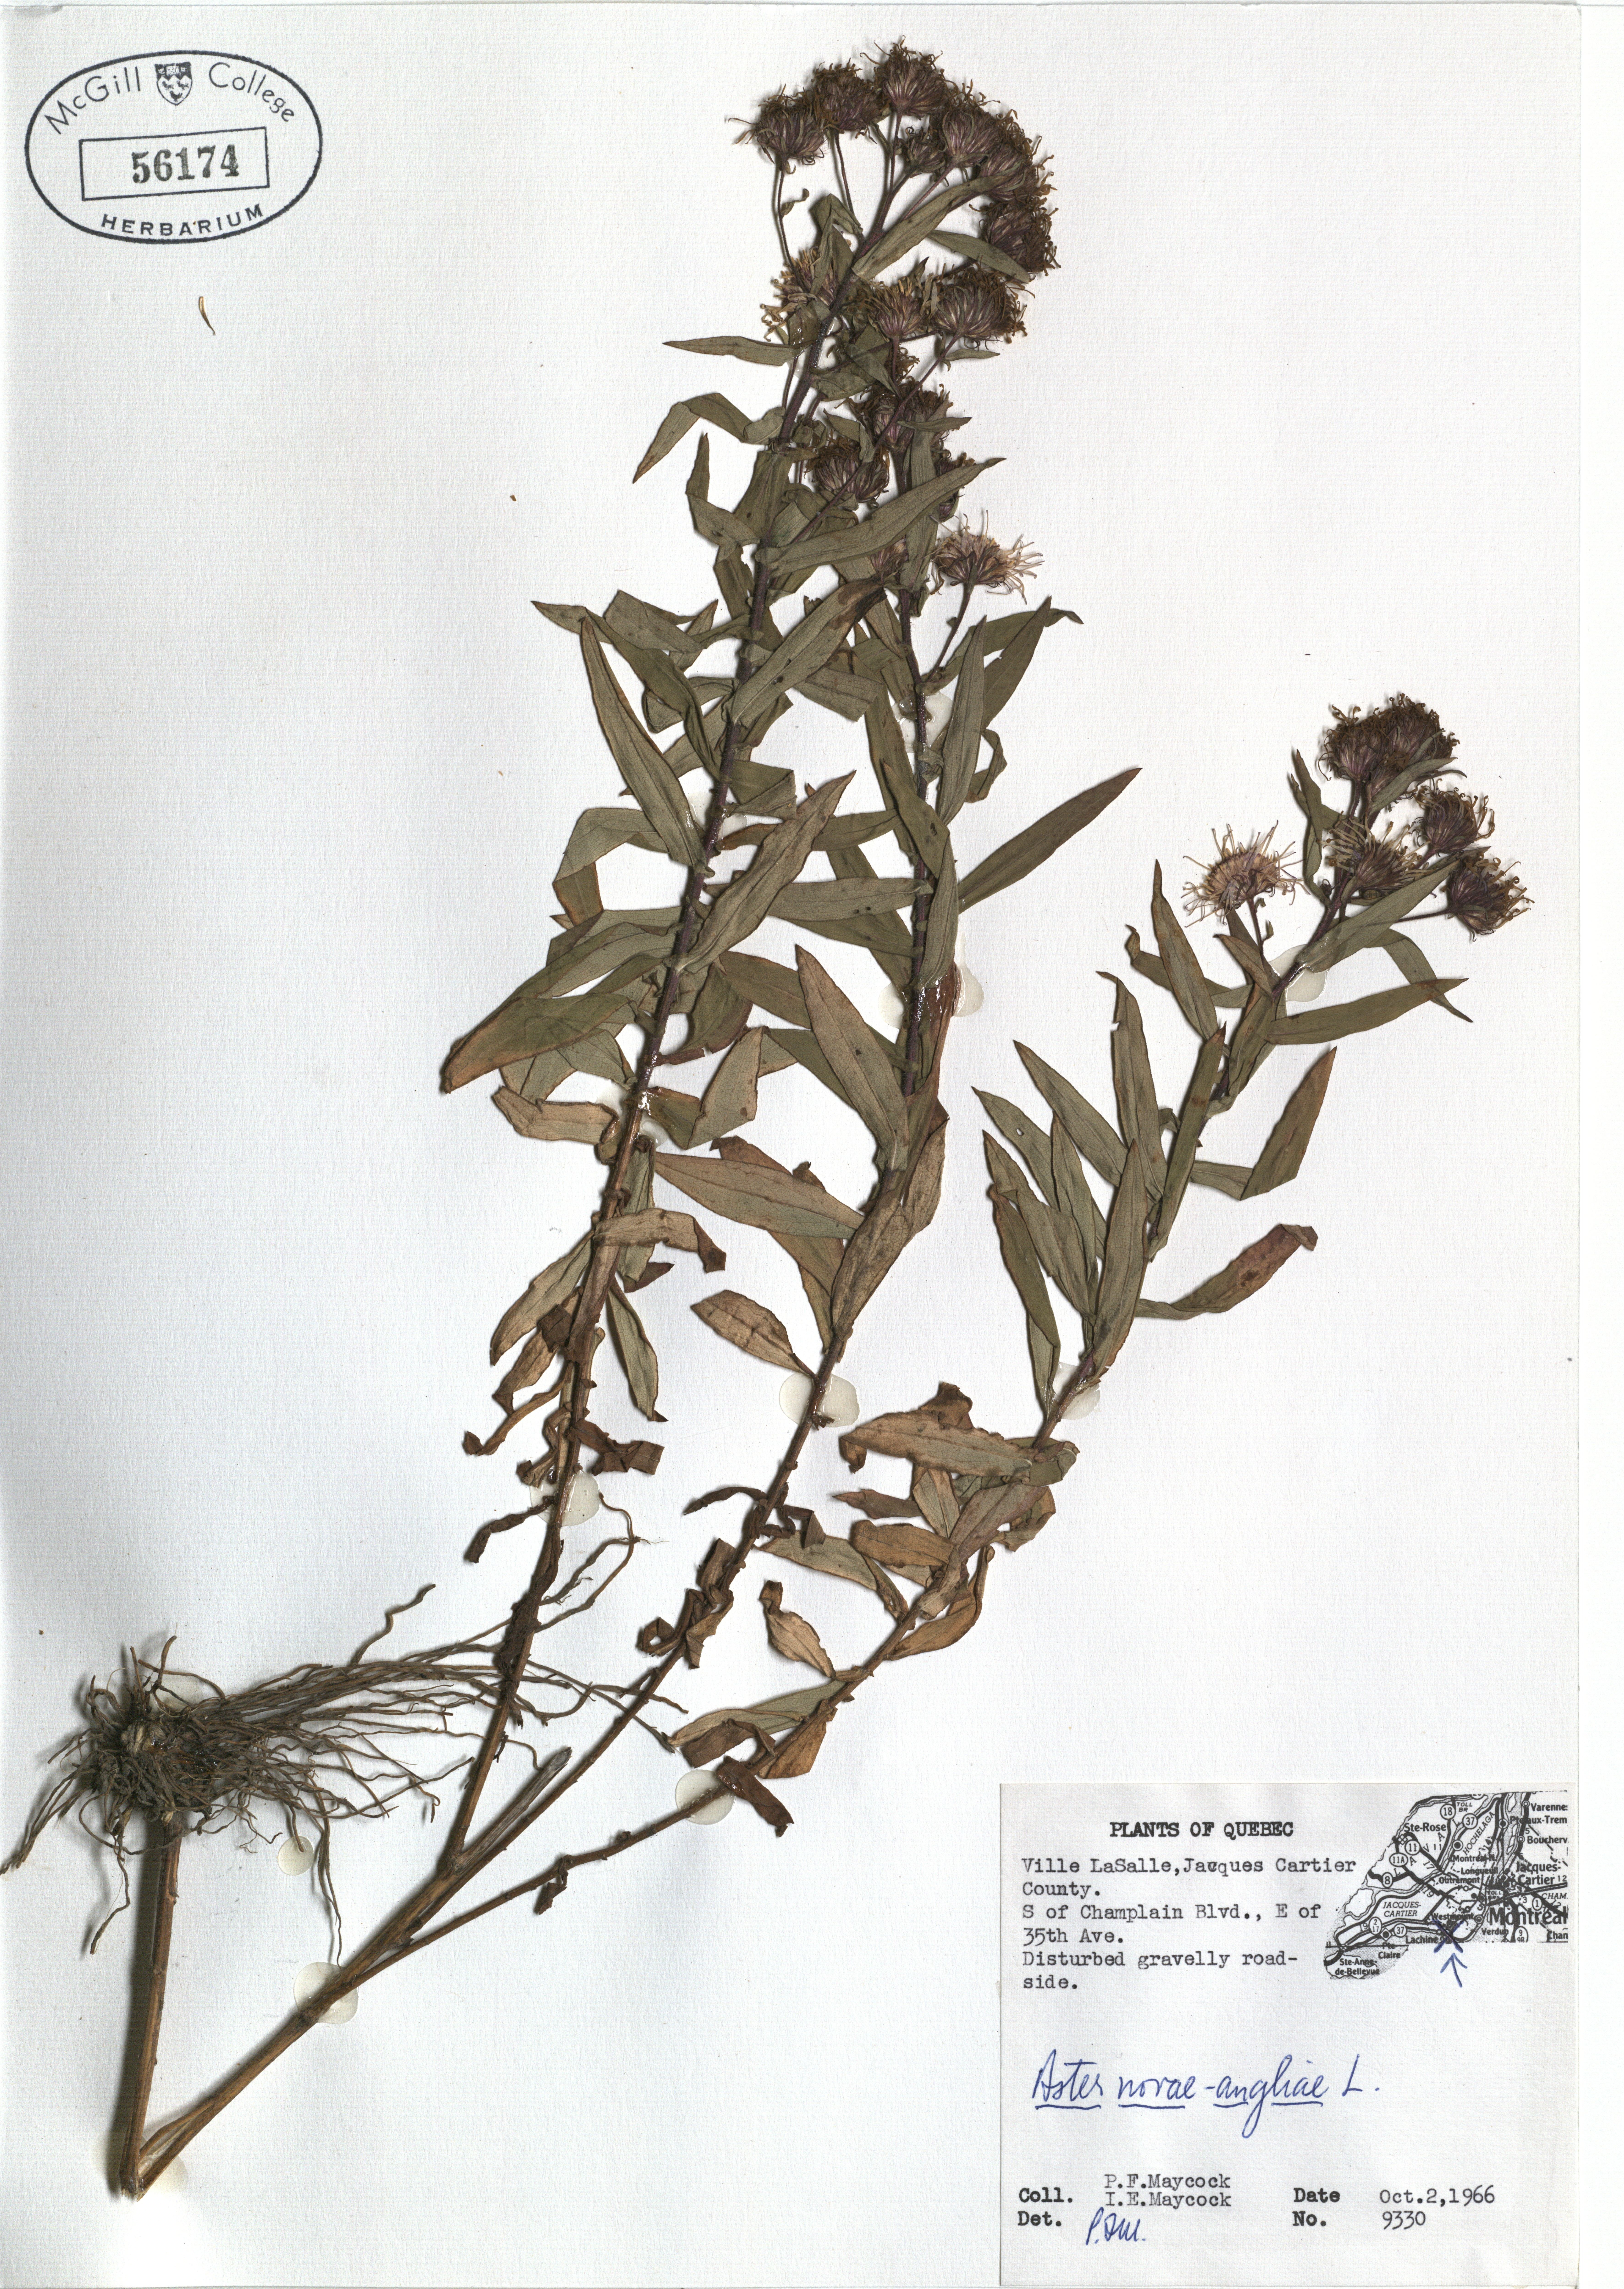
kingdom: Plantae
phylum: Tracheophyta
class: Magnoliopsida
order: Asterales
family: Asteraceae
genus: Symphyotrichum
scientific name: Symphyotrichum novae-angliae
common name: Michaelmas daisy
